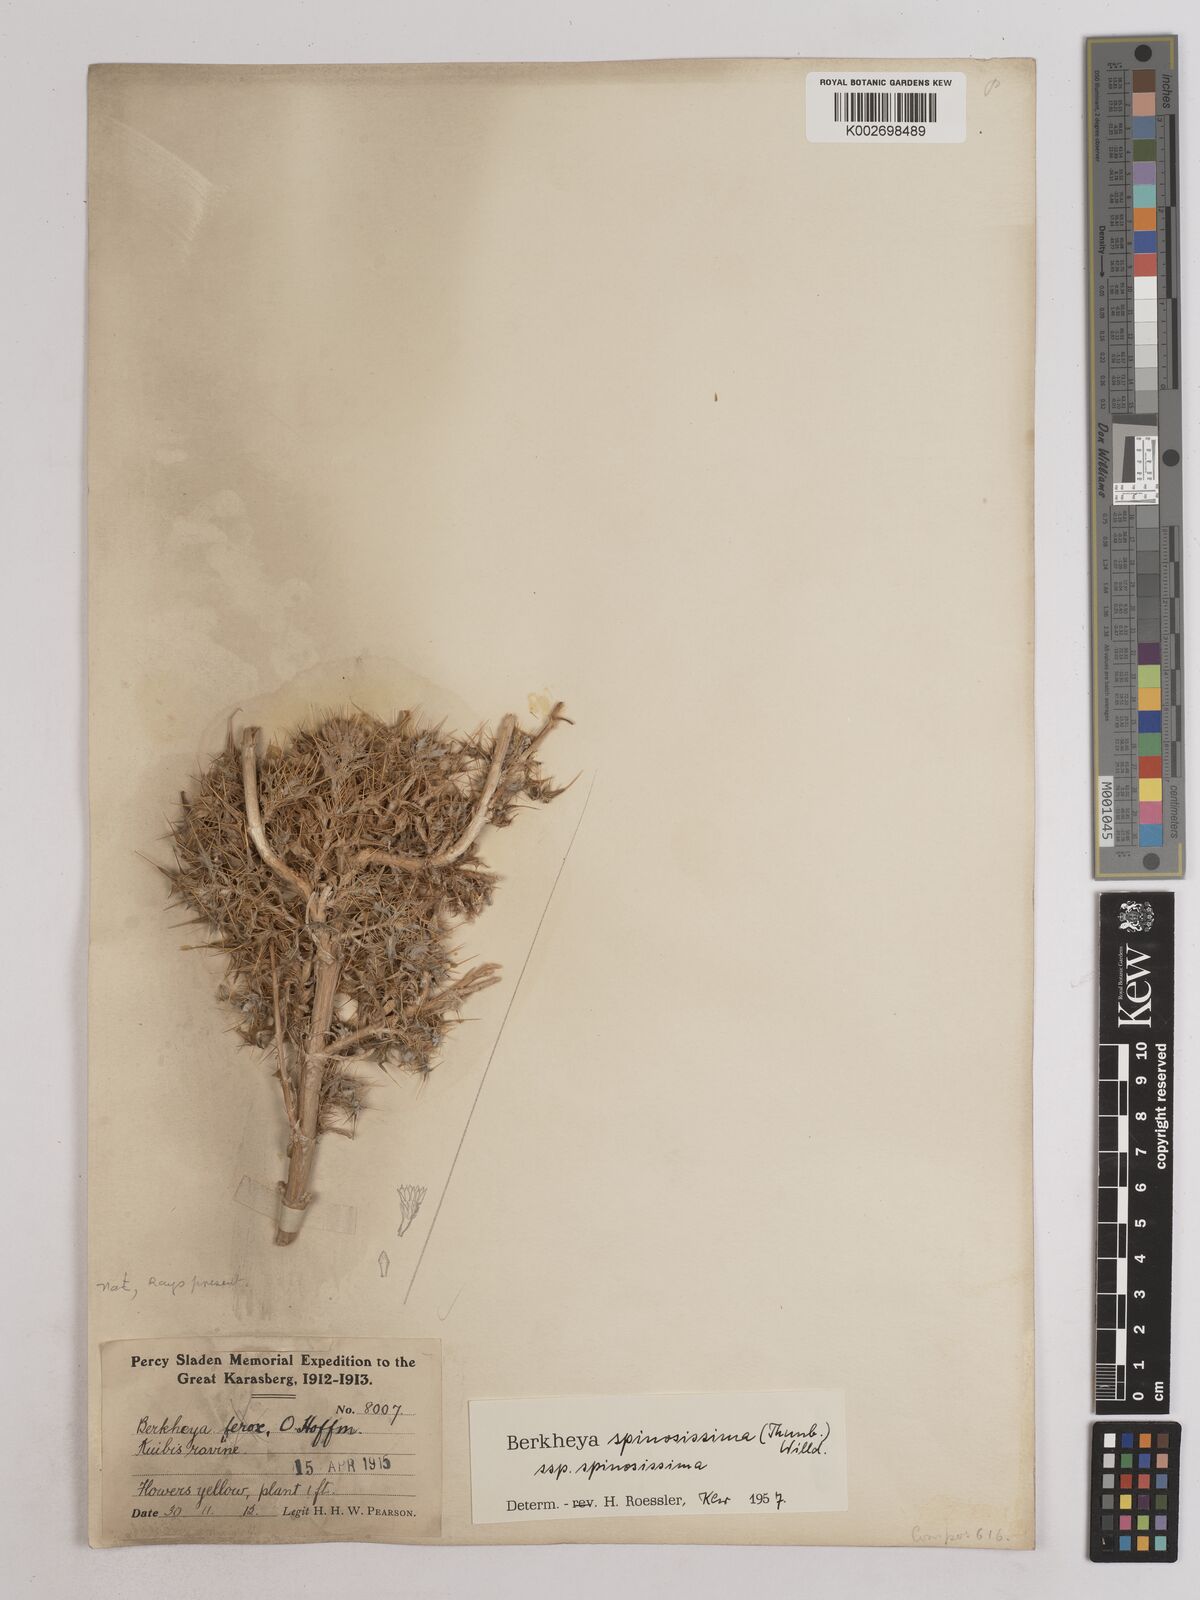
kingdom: Plantae
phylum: Tracheophyta
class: Magnoliopsida
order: Asterales
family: Asteraceae
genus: Berkheya
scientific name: Berkheya spinosissima
